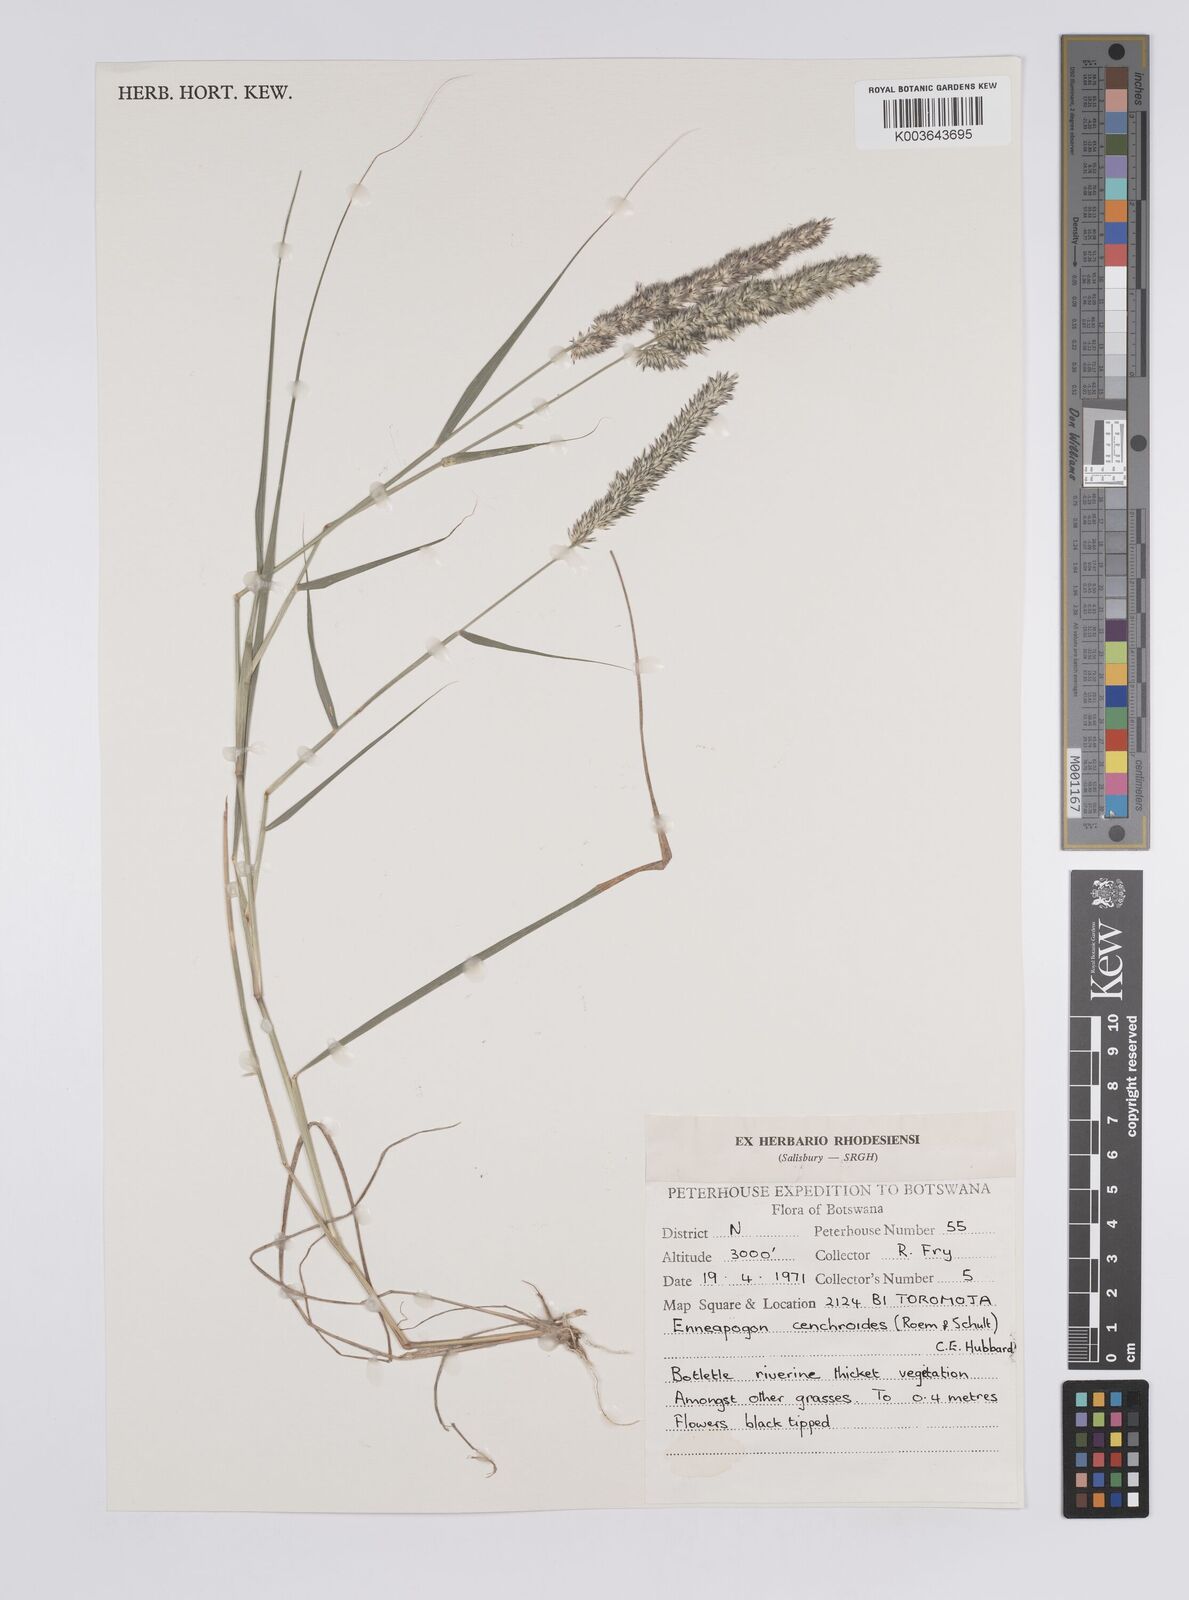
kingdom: Plantae
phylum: Tracheophyta
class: Liliopsida
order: Poales
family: Poaceae
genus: Enneapogon
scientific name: Enneapogon cenchroides
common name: Soft feather pappusgrass
